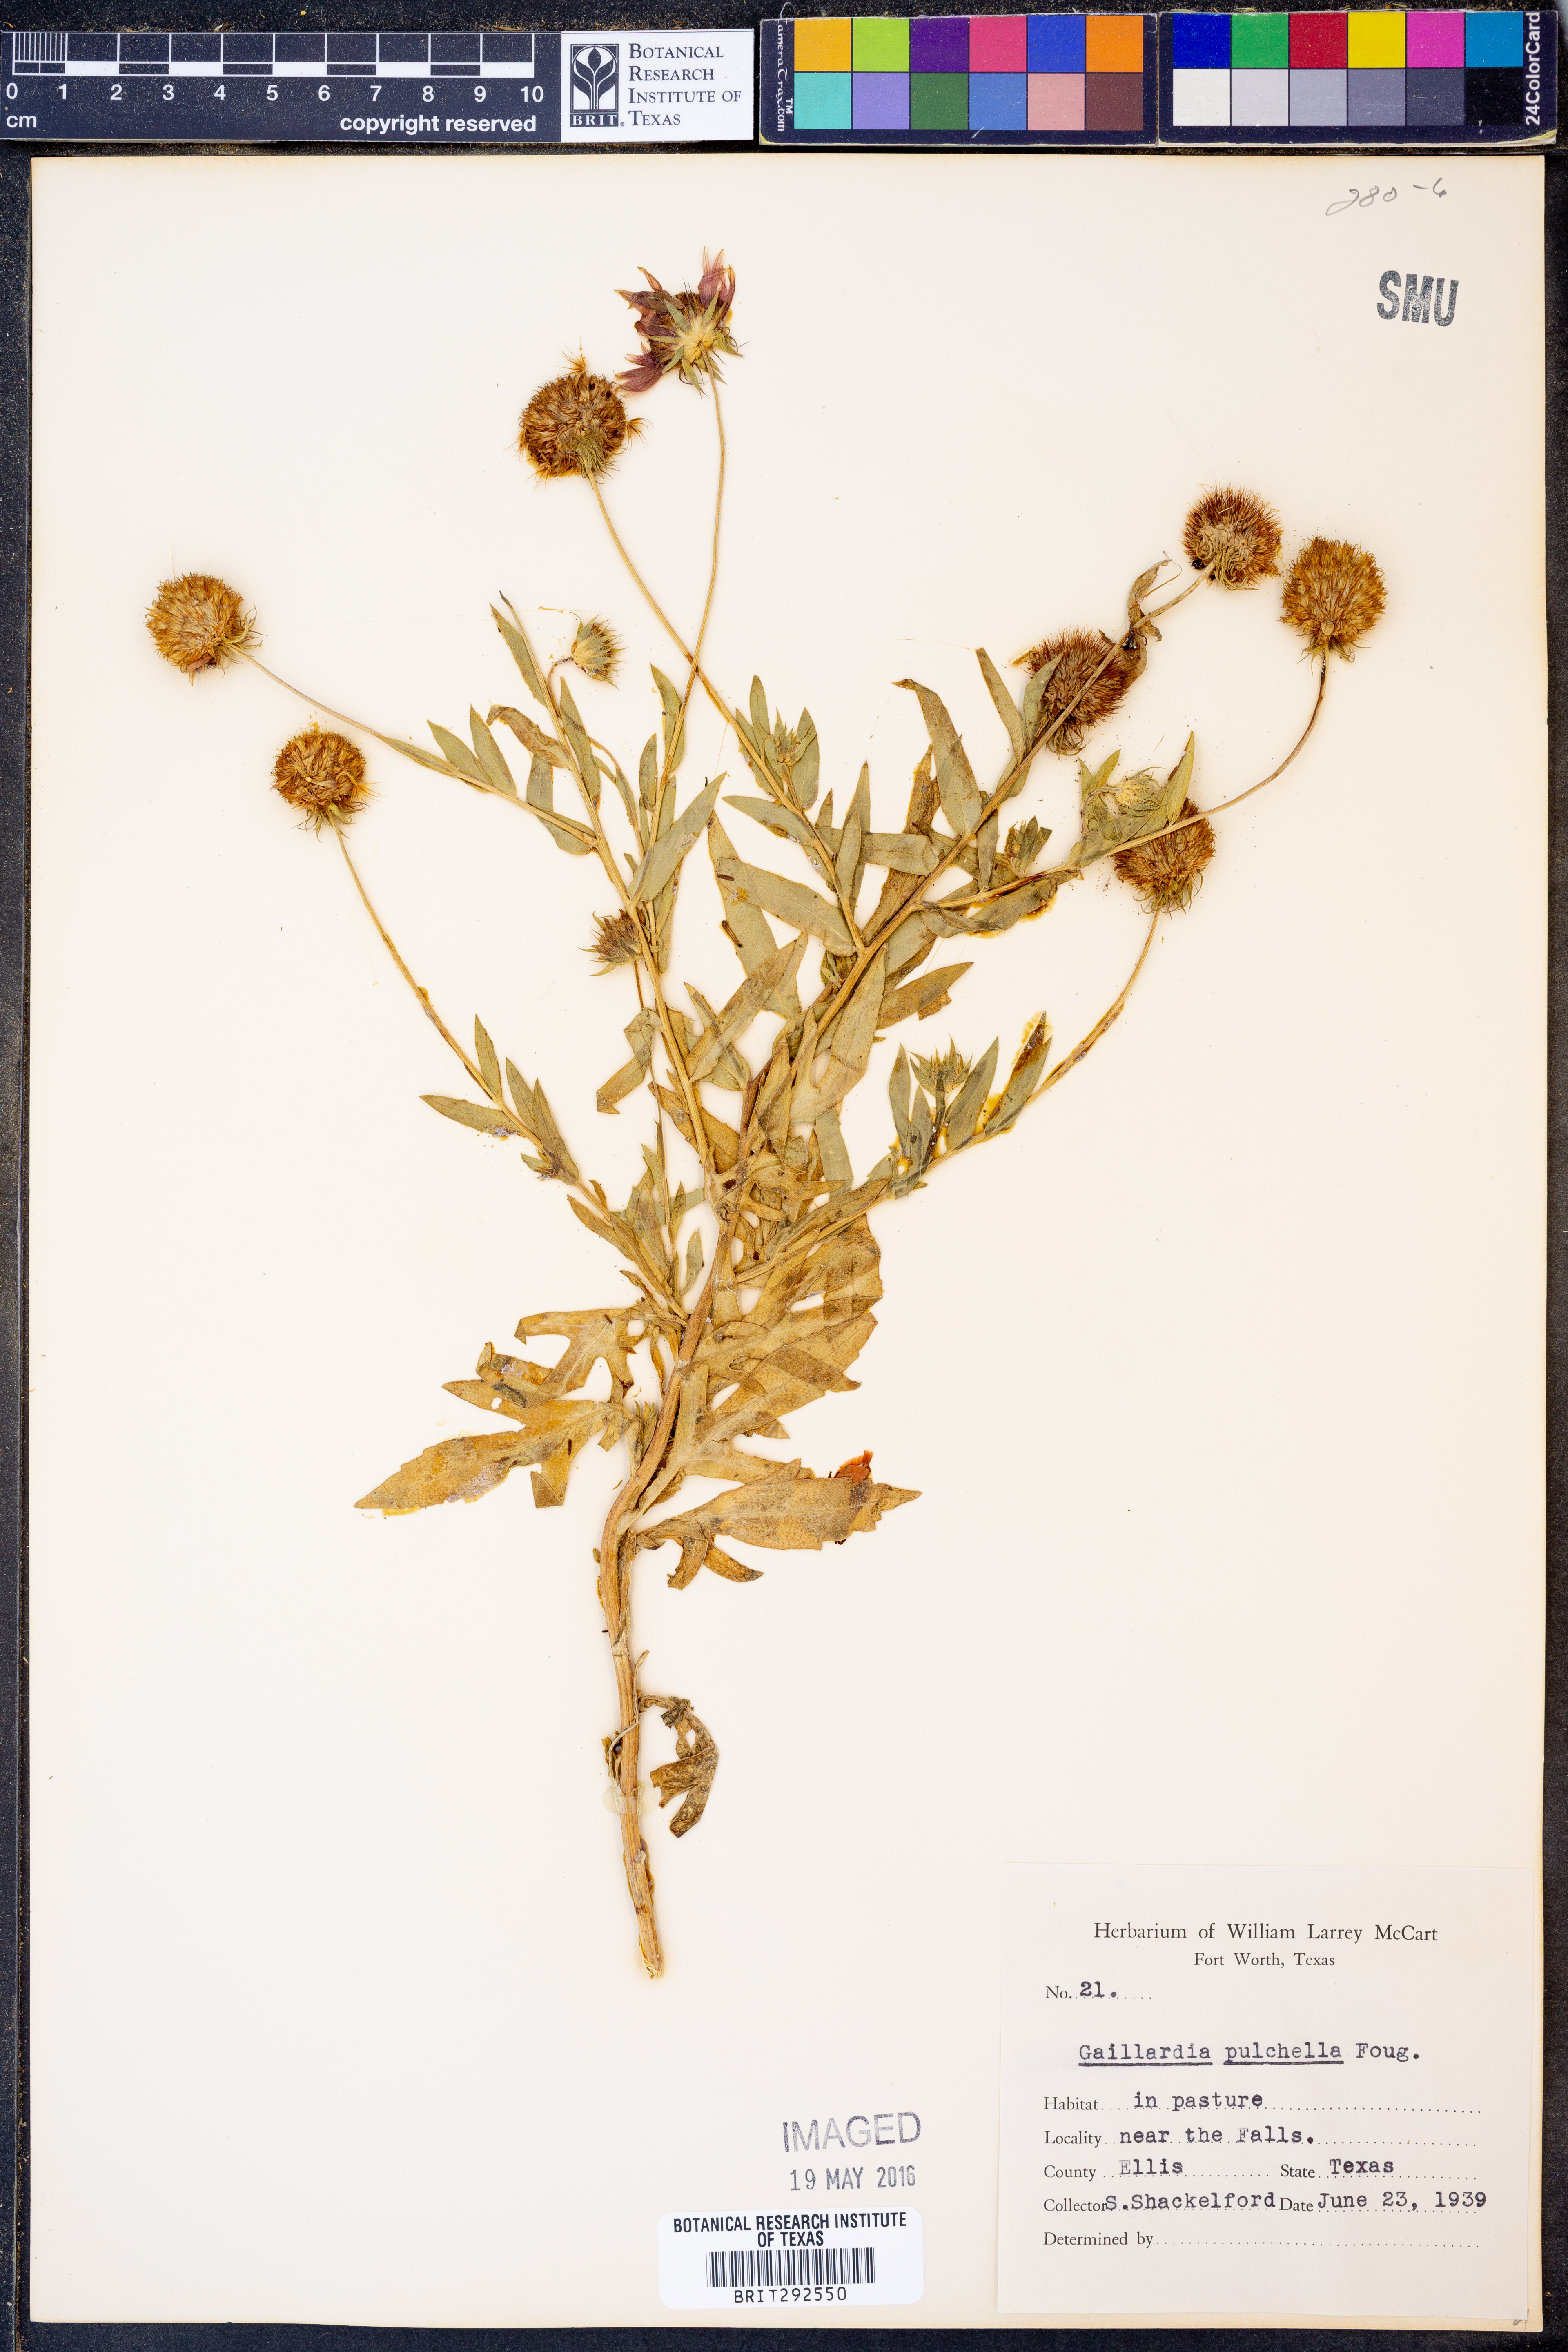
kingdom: Plantae
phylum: Tracheophyta
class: Magnoliopsida
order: Asterales
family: Asteraceae
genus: Gaillardia
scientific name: Gaillardia pulchella
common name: Firewheel
